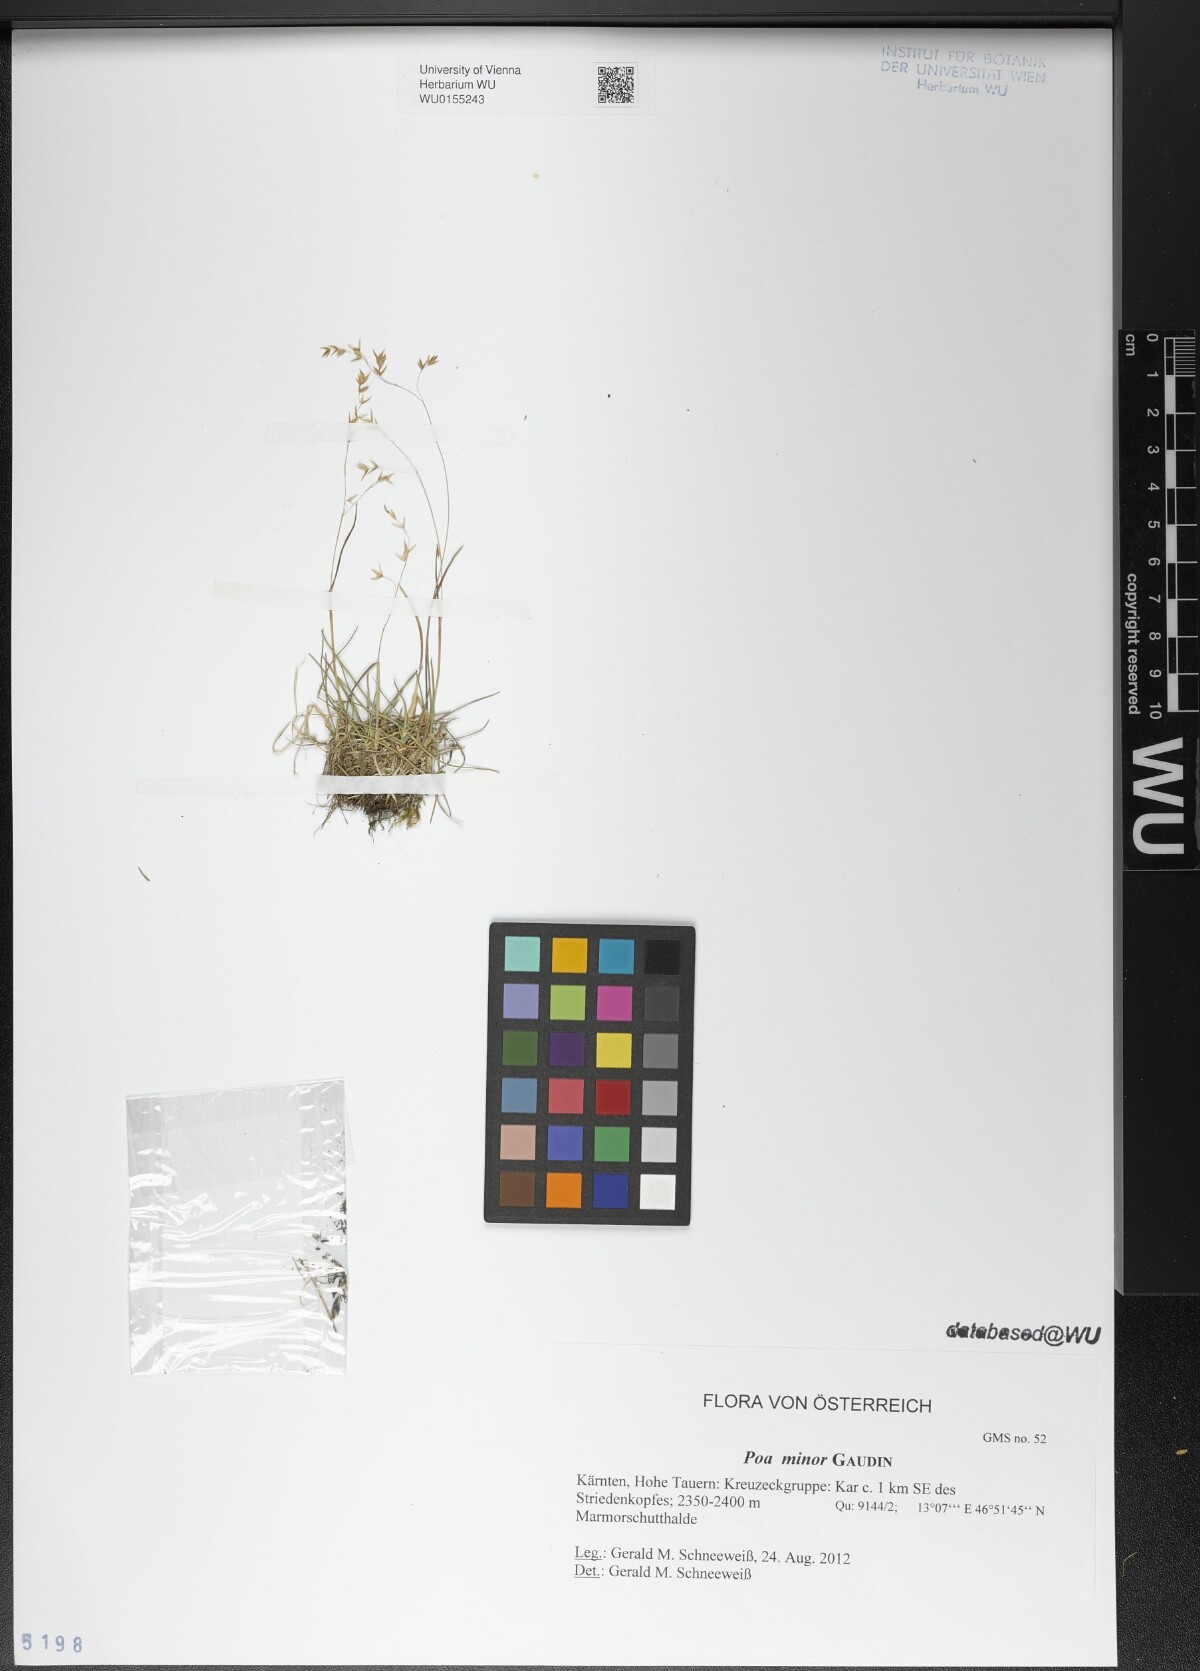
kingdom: Plantae
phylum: Tracheophyta
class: Liliopsida
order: Poales
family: Poaceae
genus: Poa
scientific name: Poa minor
